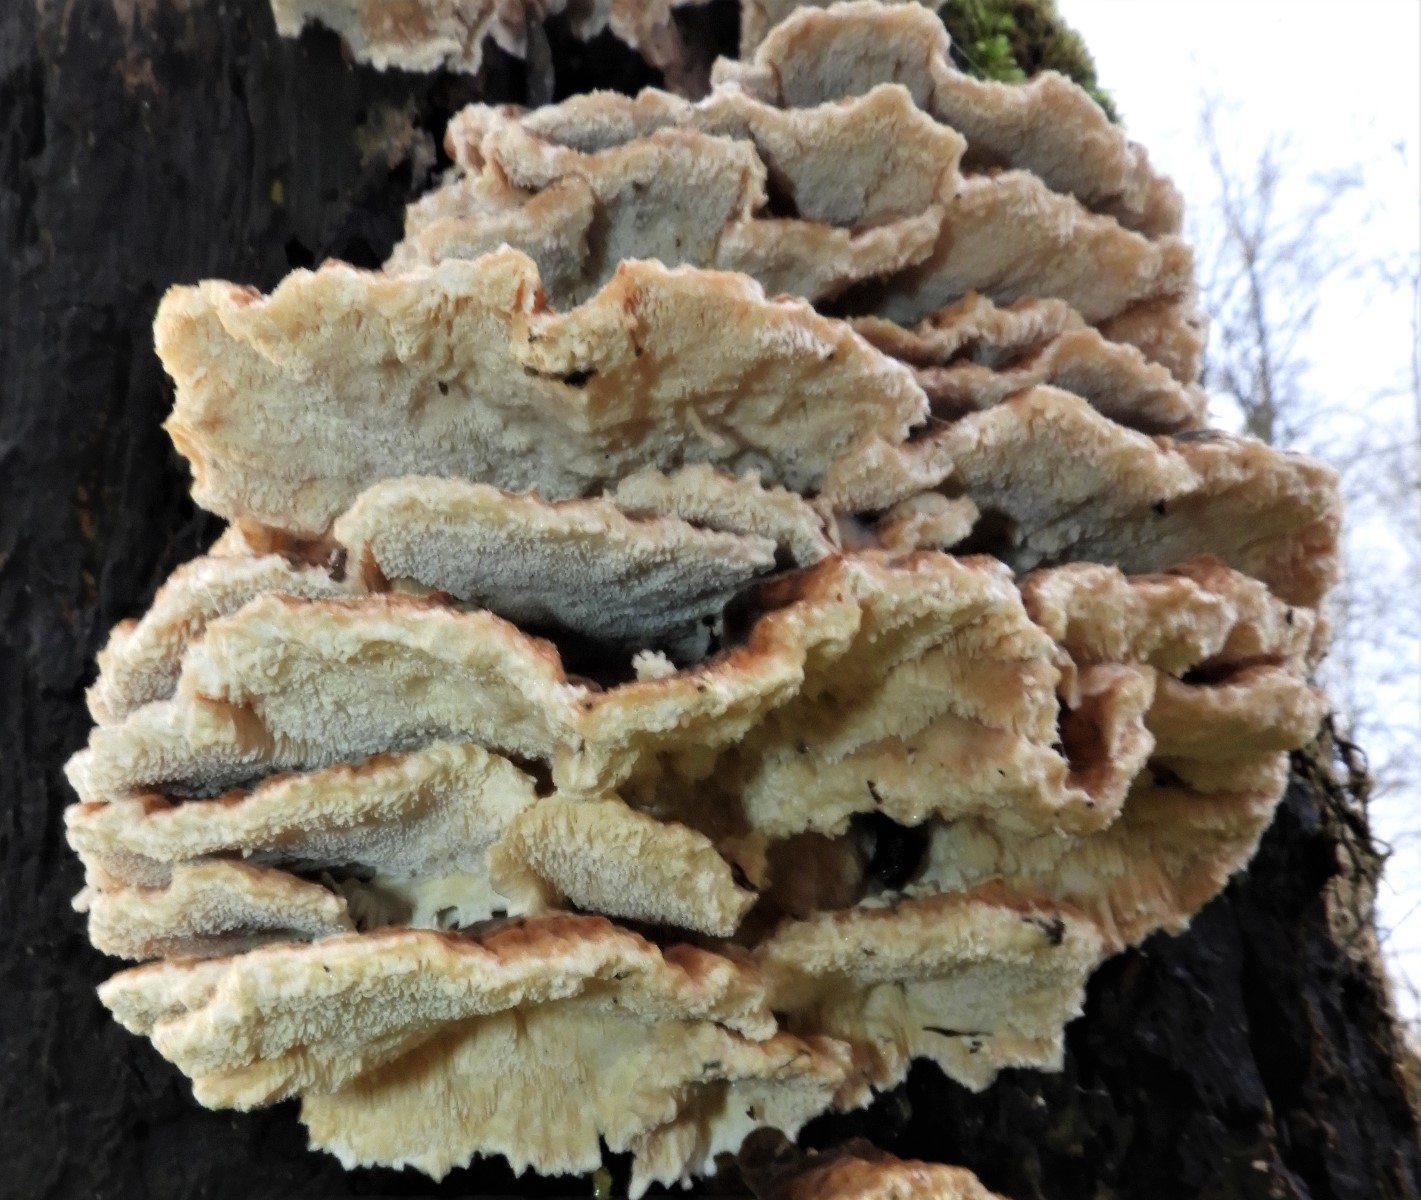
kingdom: Fungi
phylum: Basidiomycota
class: Agaricomycetes
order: Polyporales
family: Polyporaceae
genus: Trametes
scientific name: Trametes versicolor
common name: broget læderporesvamp
